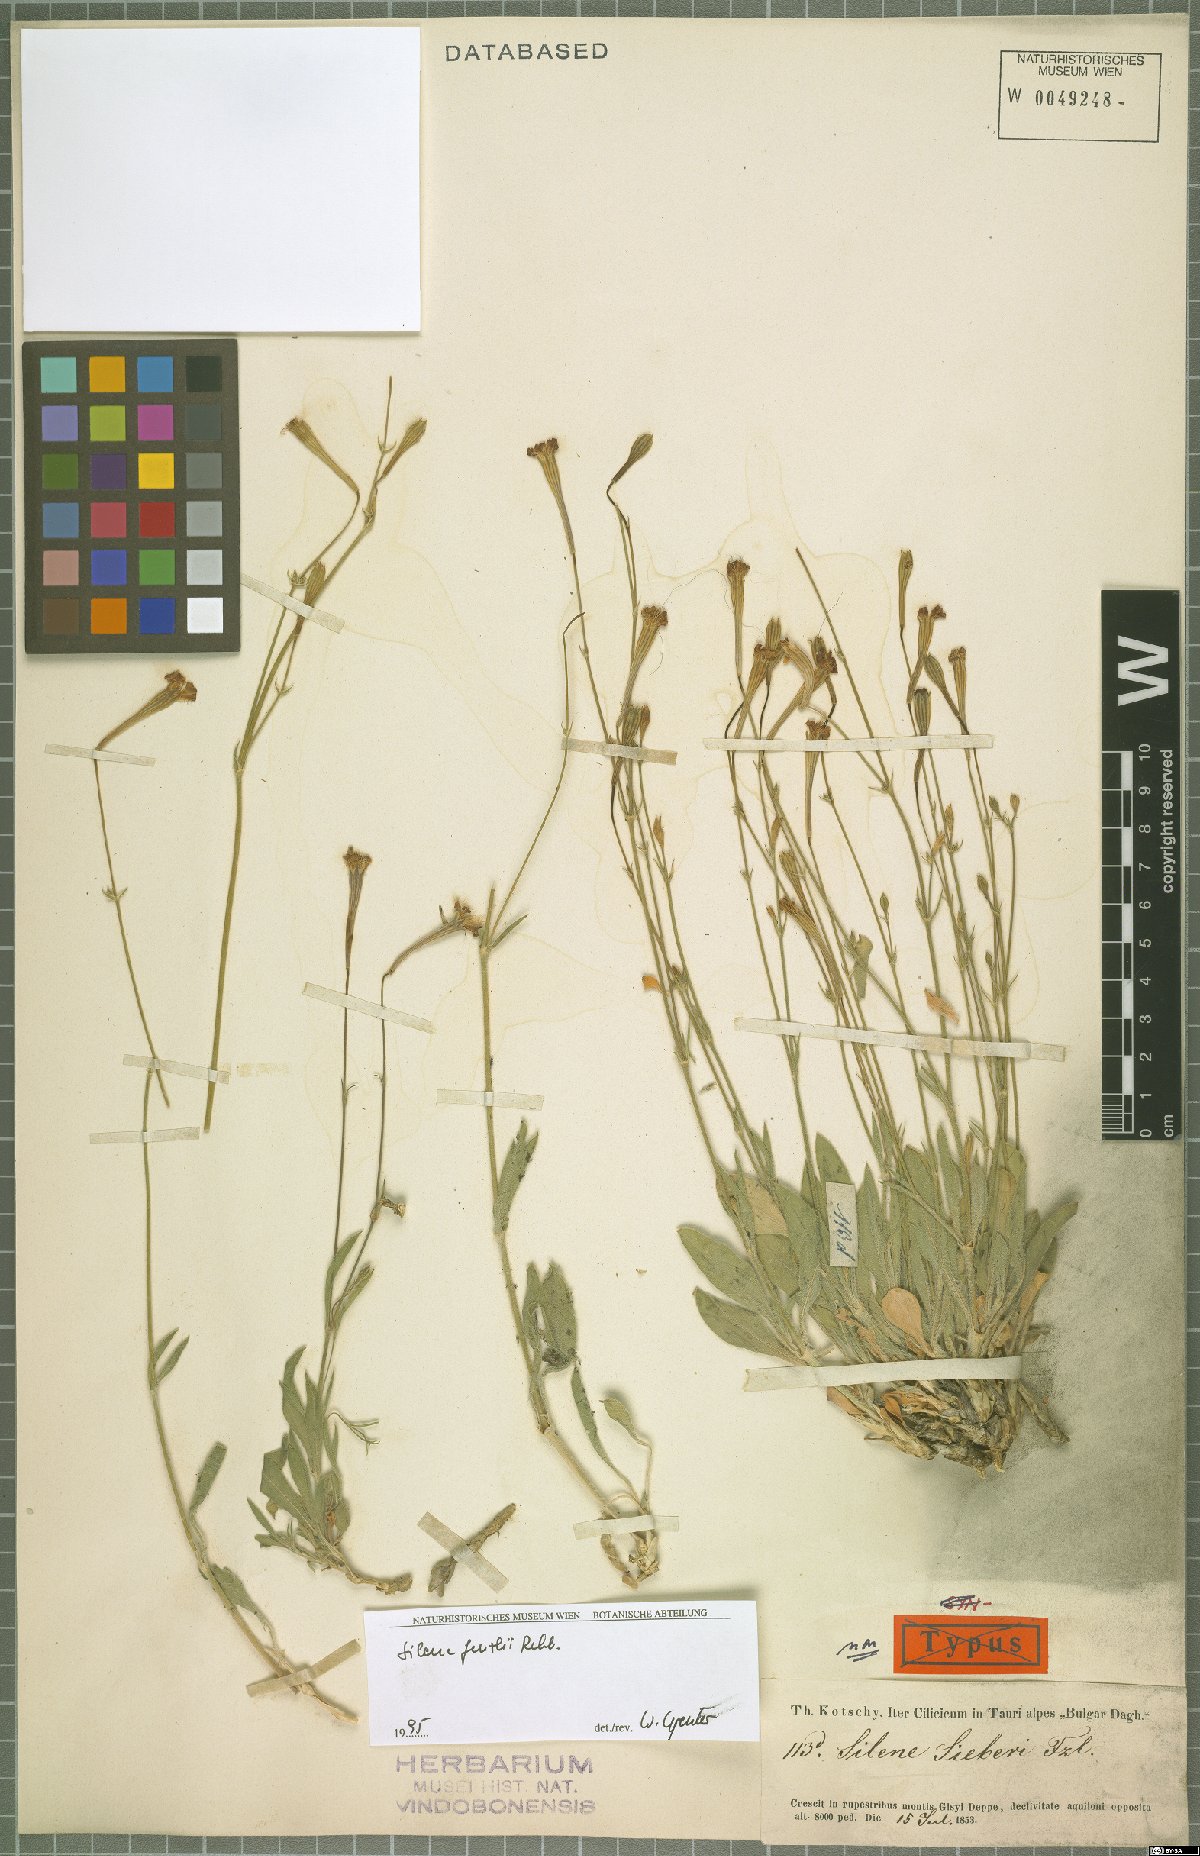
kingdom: Plantae
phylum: Tracheophyta
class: Magnoliopsida
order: Caryophyllales
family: Caryophyllaceae
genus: Silene
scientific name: Silene fenzlii
